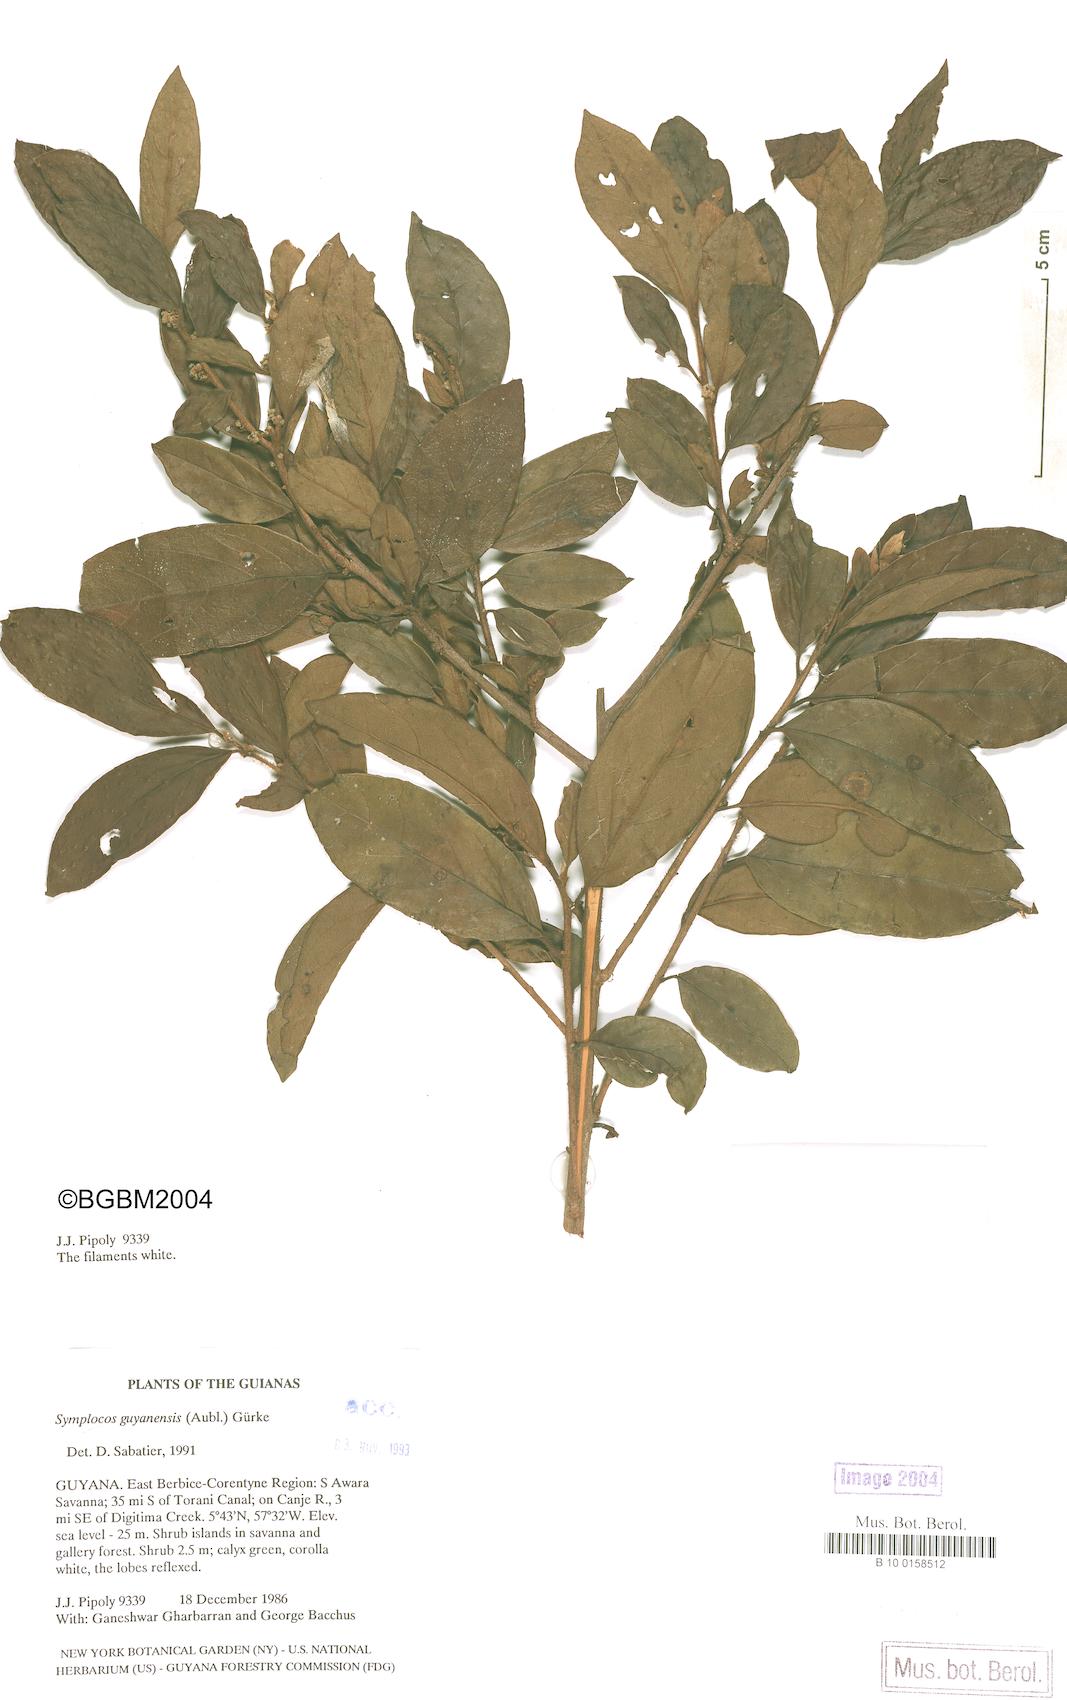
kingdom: Plantae
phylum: Tracheophyta
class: Magnoliopsida
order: Ericales
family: Symplocaceae
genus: Symplocos
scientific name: Symplocos guianensis
